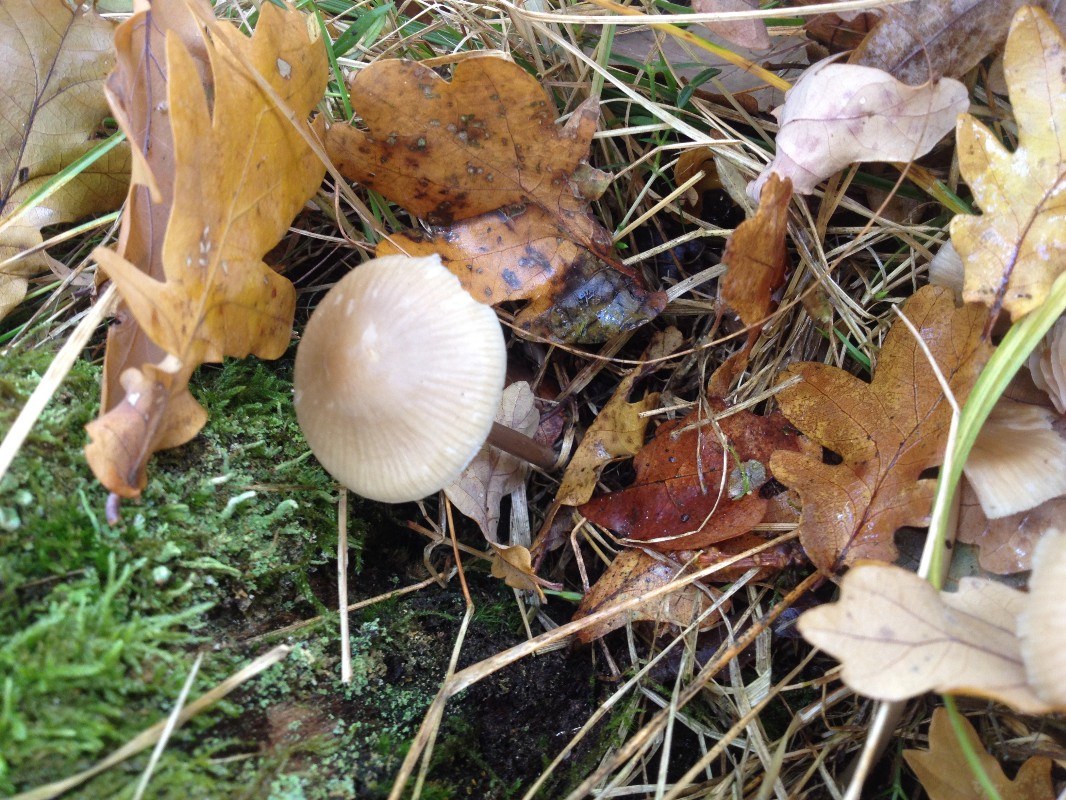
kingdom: Fungi
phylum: Basidiomycota
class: Agaricomycetes
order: Agaricales
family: Mycenaceae
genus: Mycena
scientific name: Mycena galericulata
